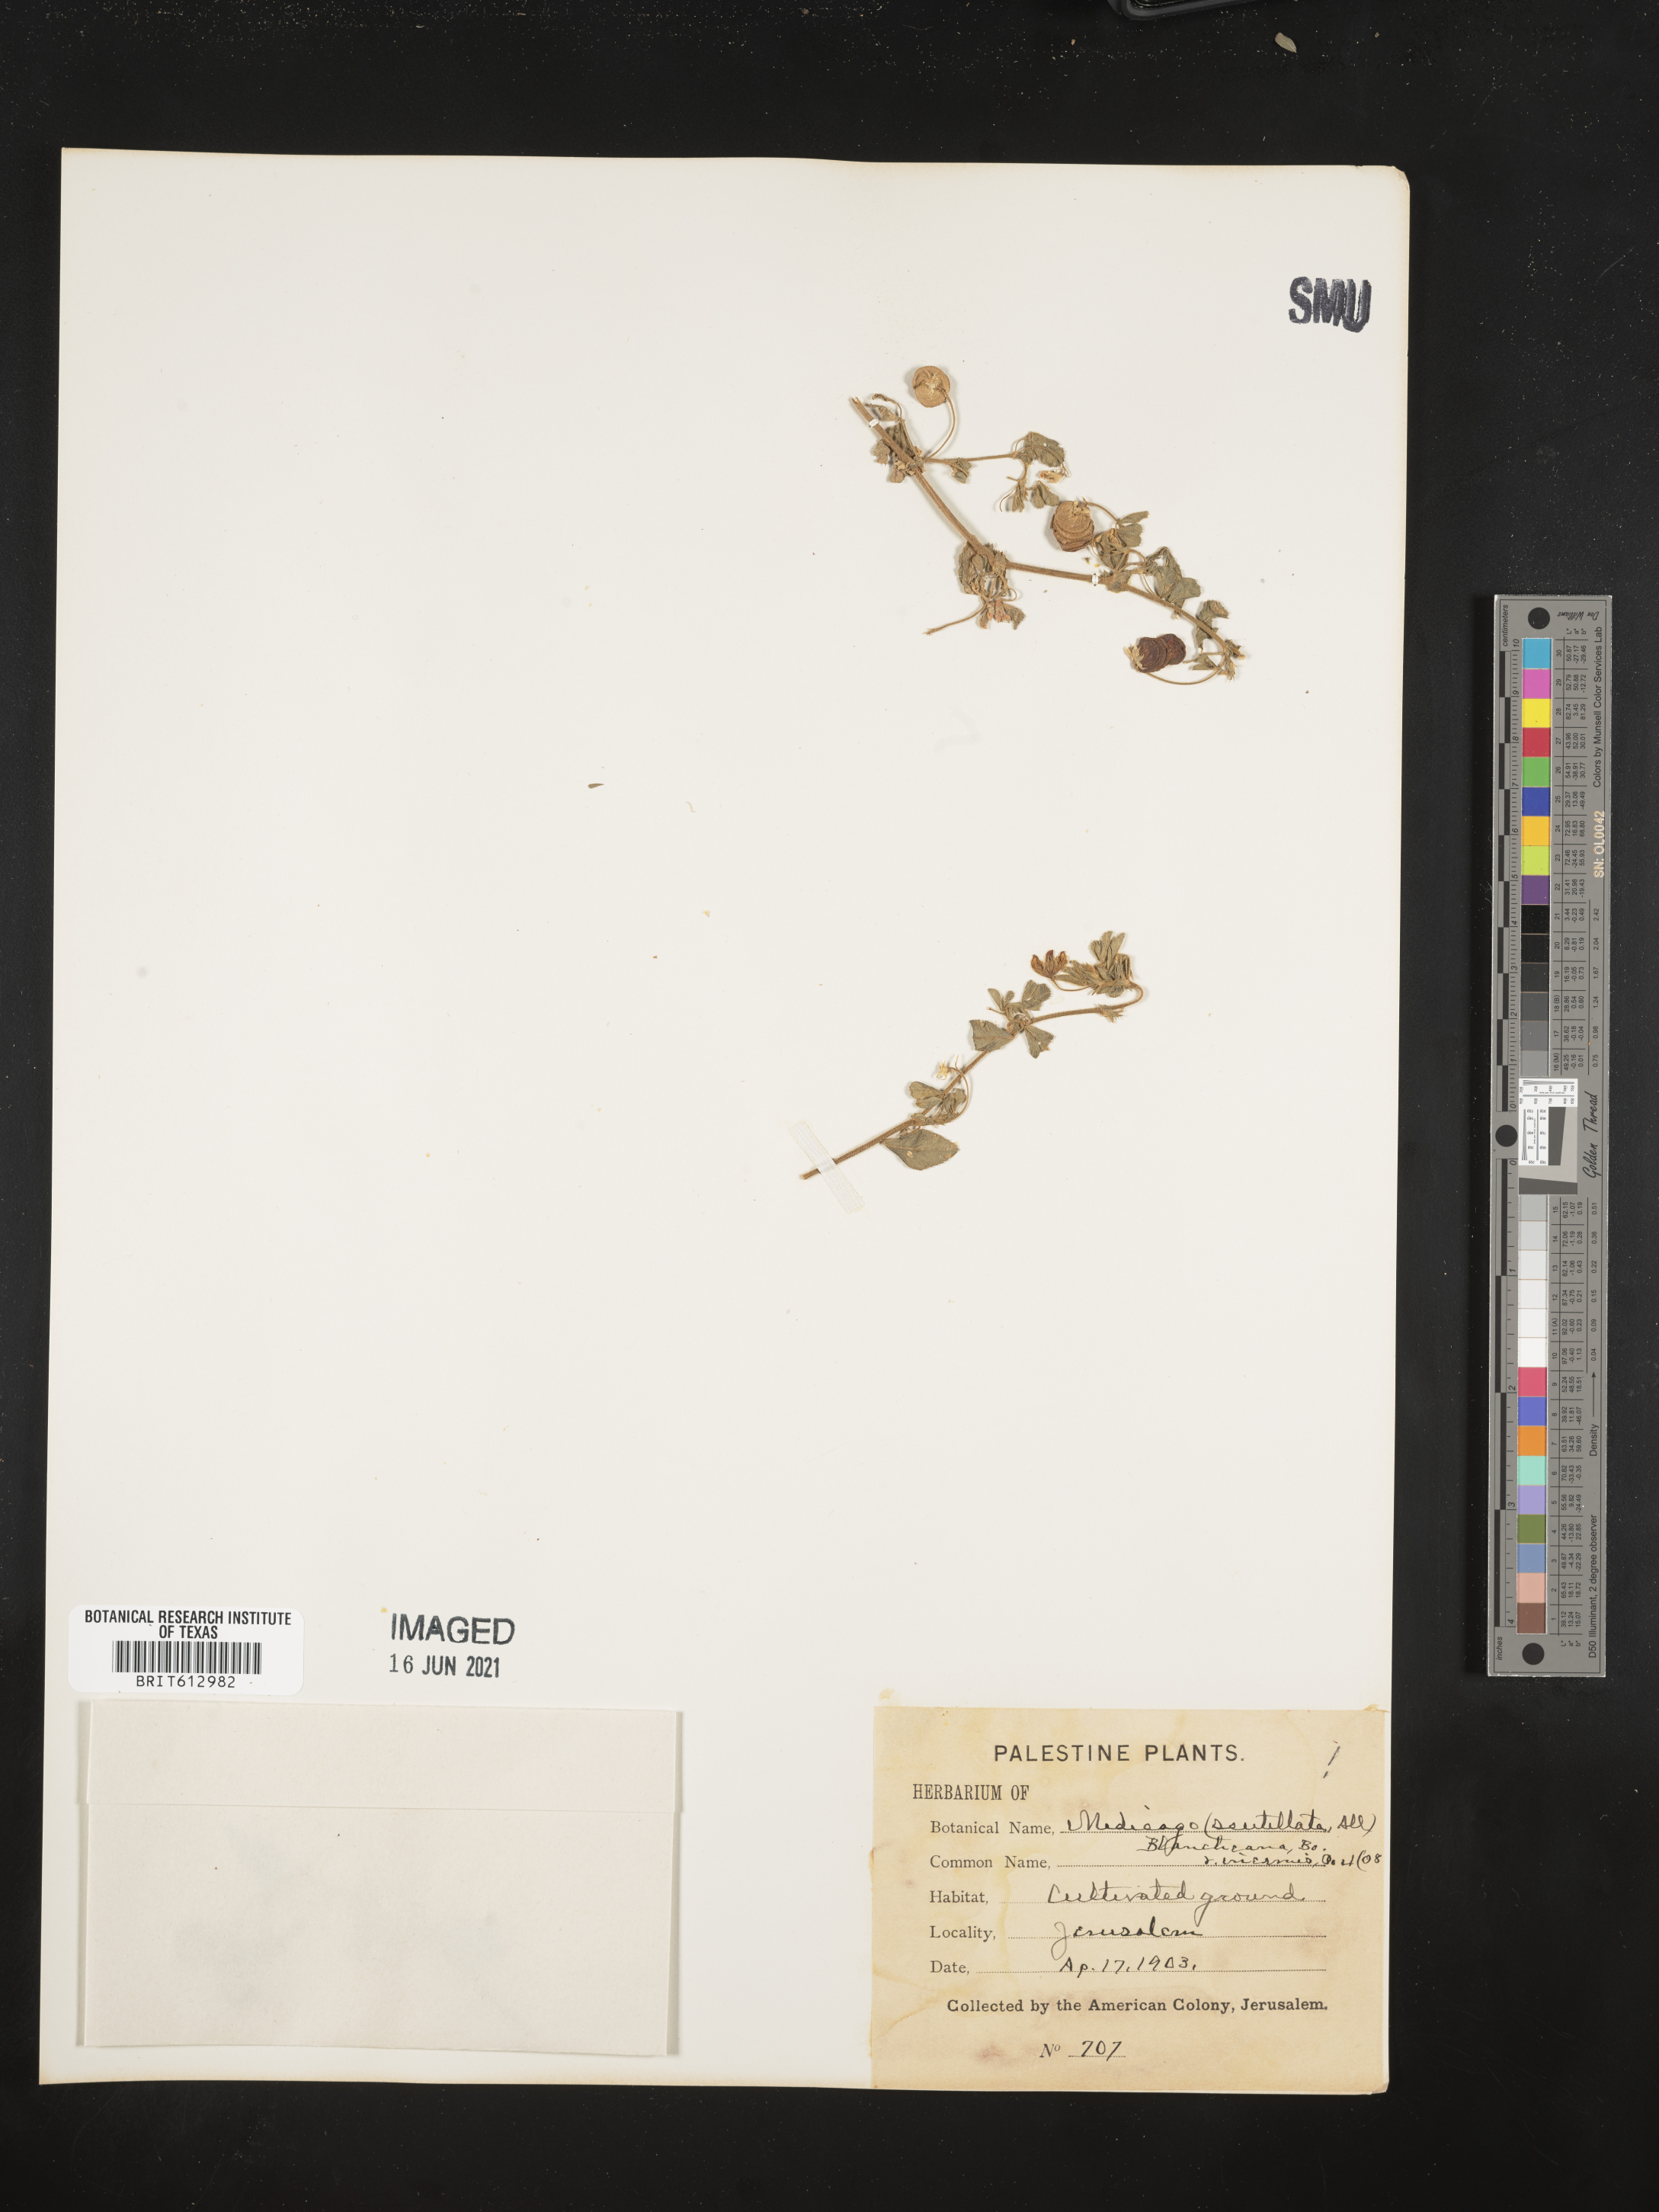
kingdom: Plantae
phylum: Tracheophyta
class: Magnoliopsida
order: Fabales
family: Fabaceae
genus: Medicago
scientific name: Medicago blancheana
